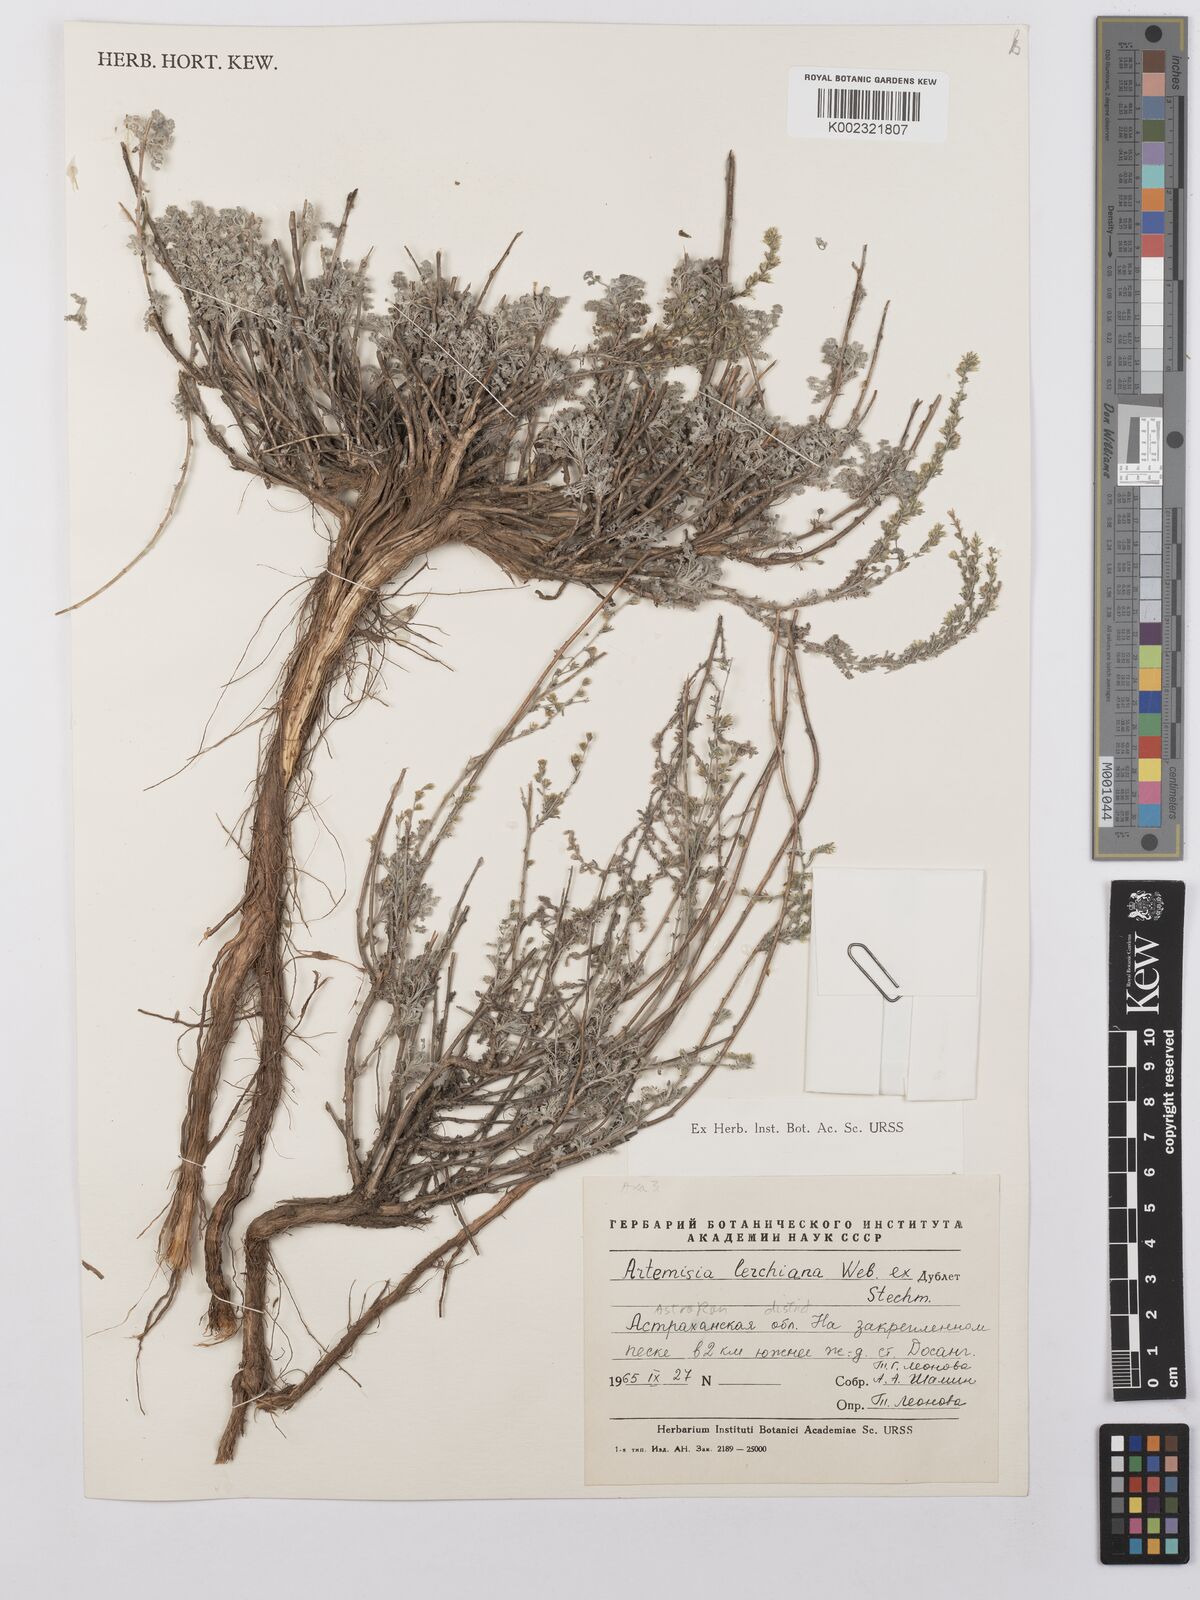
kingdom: Plantae
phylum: Tracheophyta
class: Magnoliopsida
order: Asterales
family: Asteraceae
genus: Artemisia
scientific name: Artemisia lercheana
